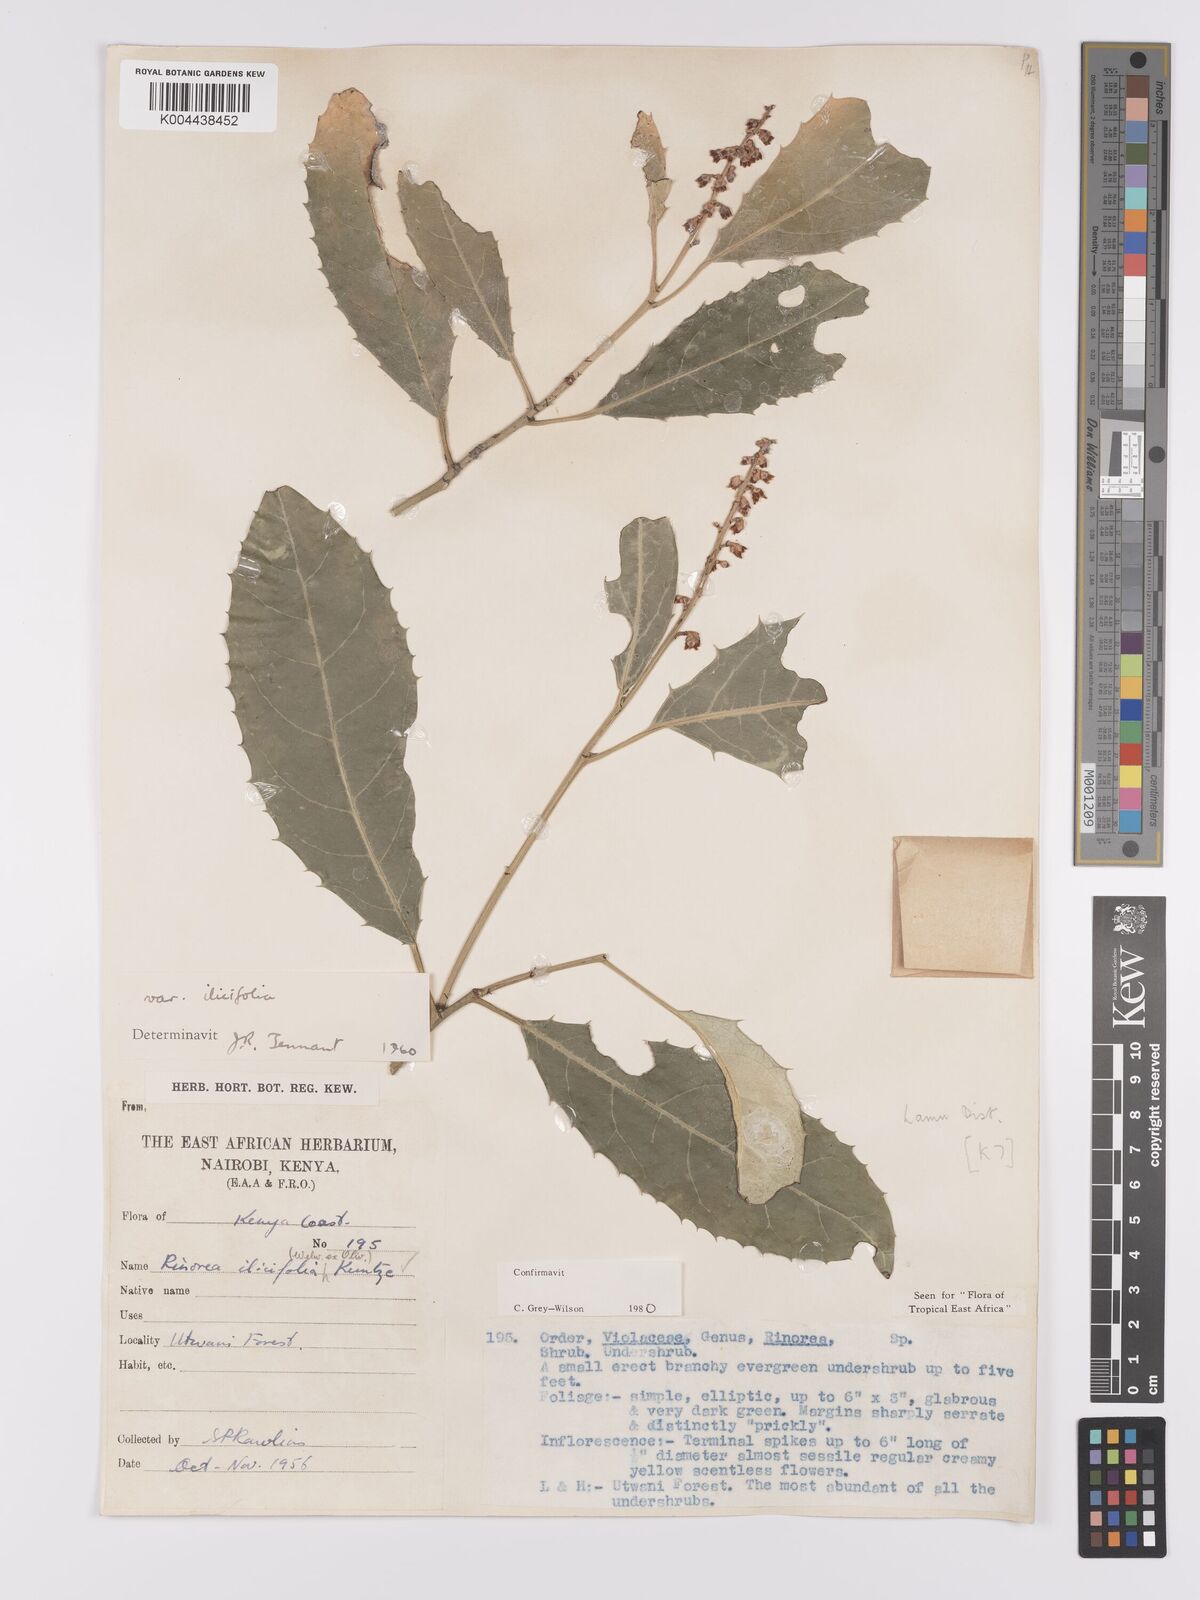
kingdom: Plantae
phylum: Tracheophyta
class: Magnoliopsida
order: Malpighiales
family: Violaceae
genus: Rinorea
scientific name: Rinorea ilicifolia
